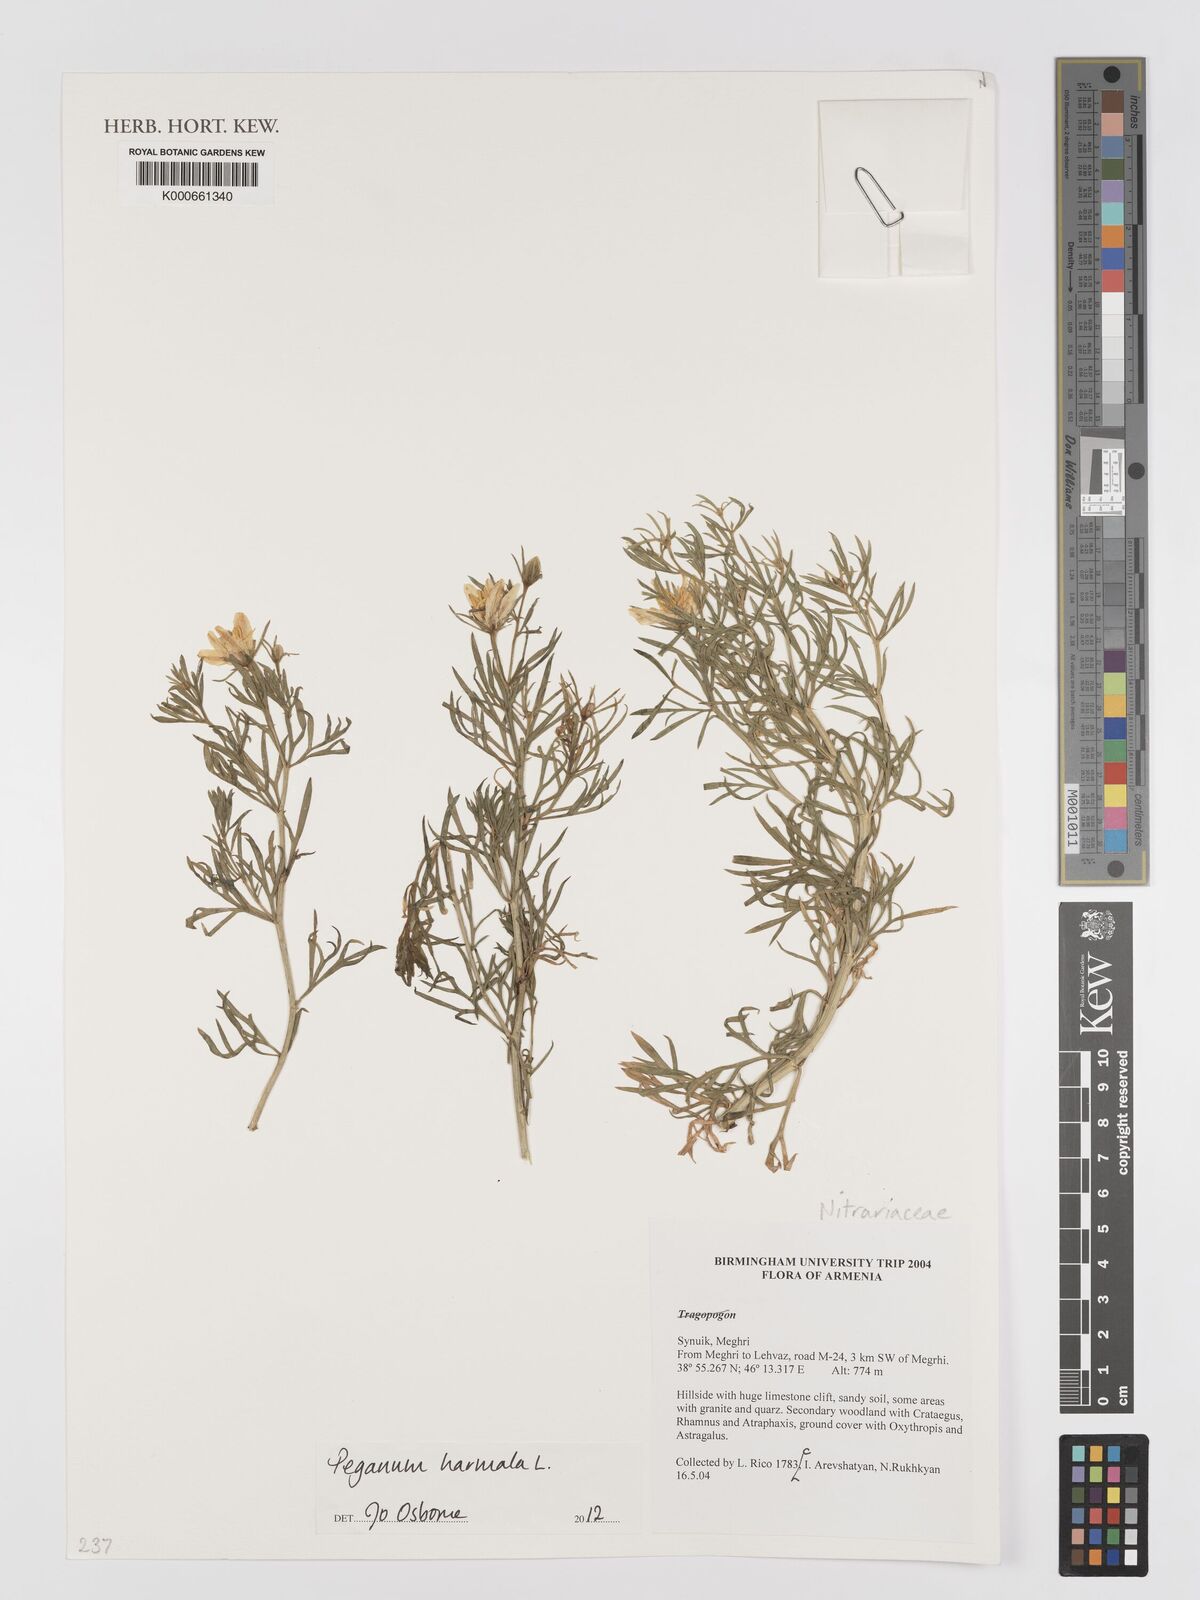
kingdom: Plantae
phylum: Tracheophyta
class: Magnoliopsida
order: Sapindales
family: Tetradiclidaceae
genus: Peganum
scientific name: Peganum harmala
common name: Harmal peganum
